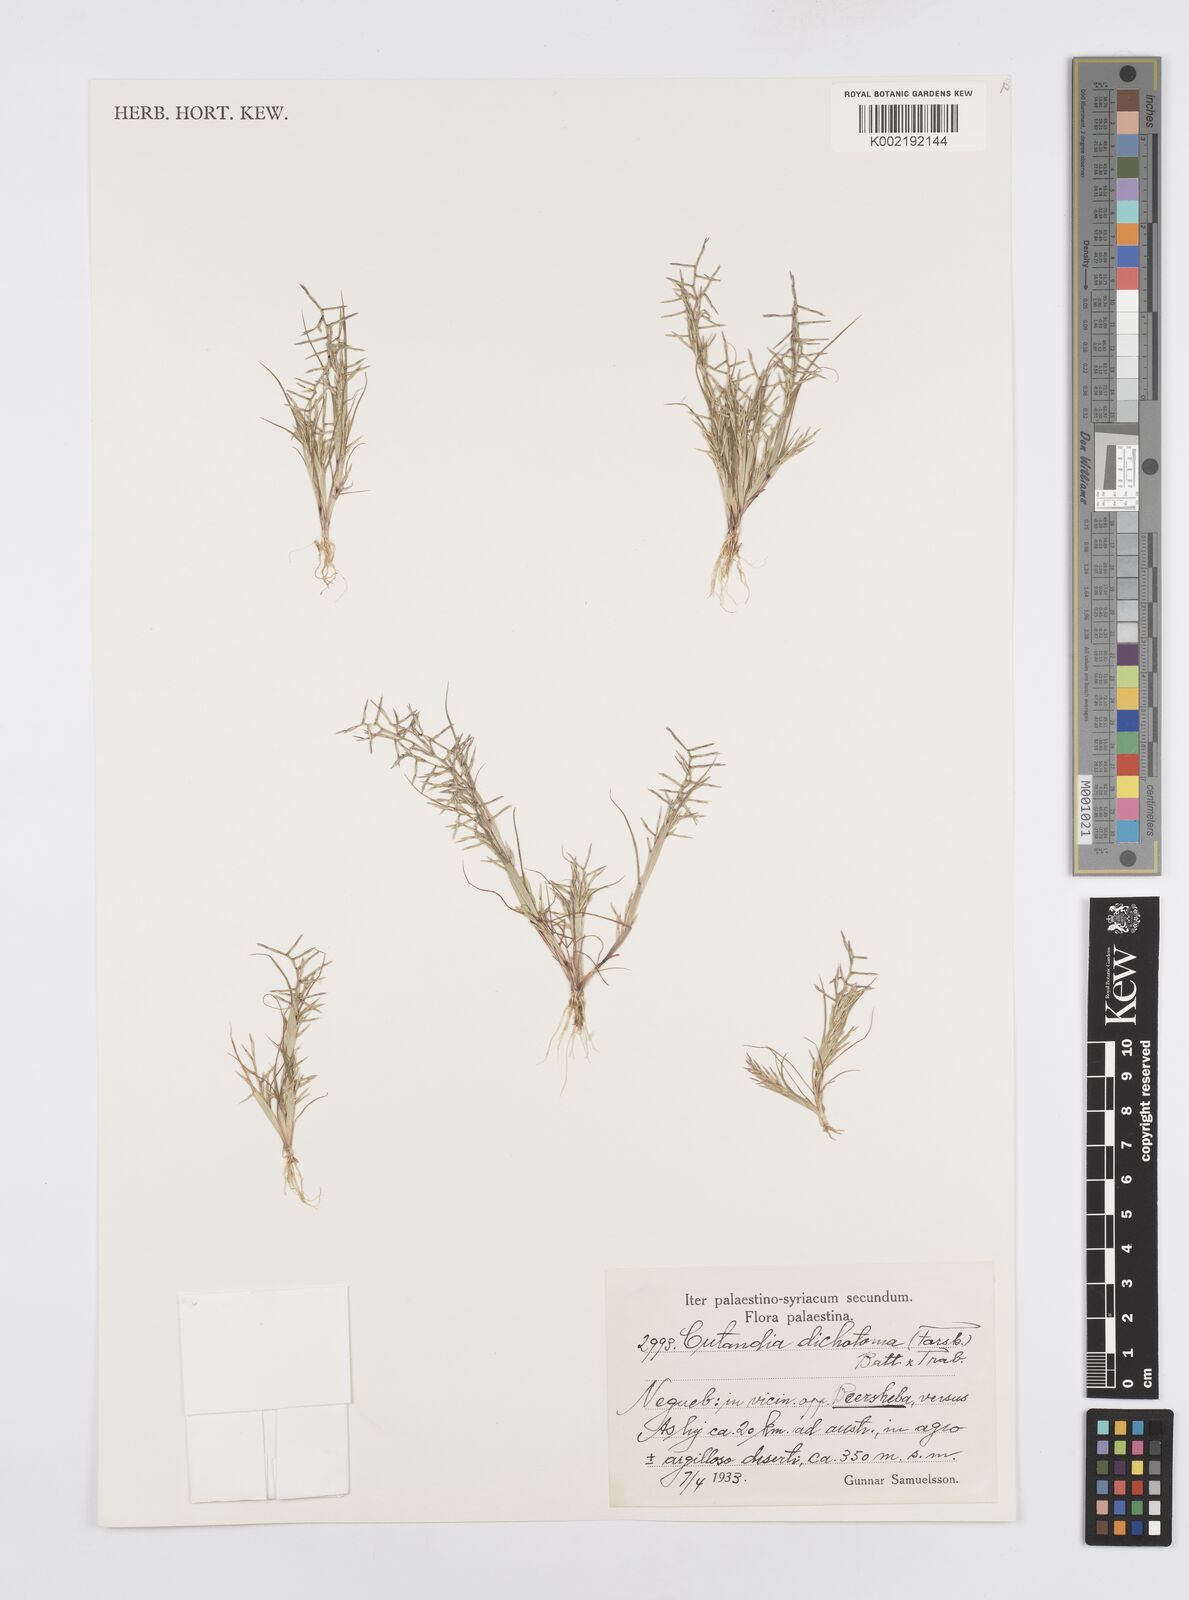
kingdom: Plantae
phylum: Tracheophyta
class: Liliopsida
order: Poales
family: Poaceae
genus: Cutandia
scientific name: Cutandia dichotoma
